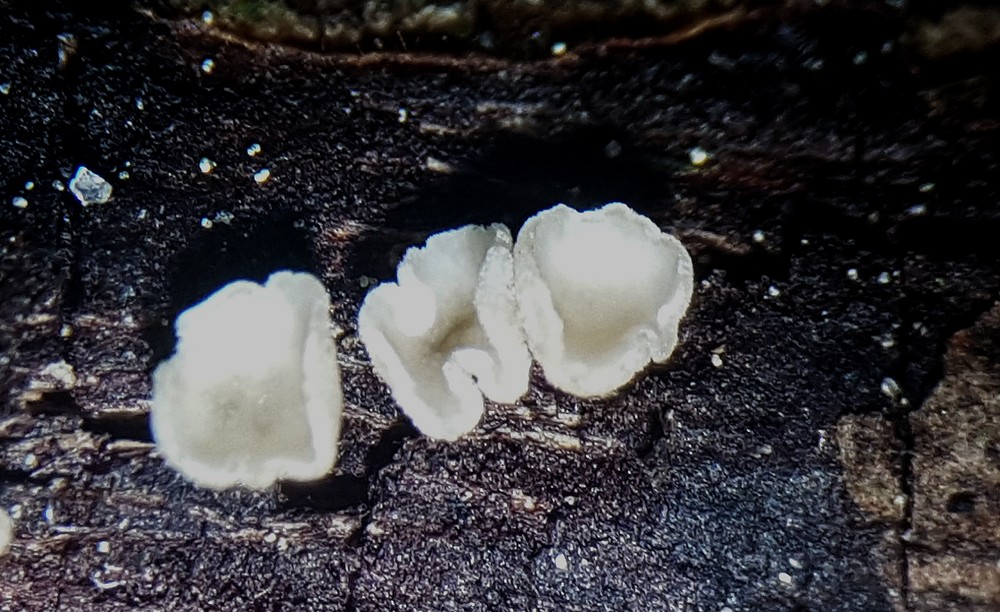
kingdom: Fungi
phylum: Ascomycota
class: Leotiomycetes
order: Helotiales
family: Pezizellaceae
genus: Calycina
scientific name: Calycina vulgaris
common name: pølsesporet gulskive
